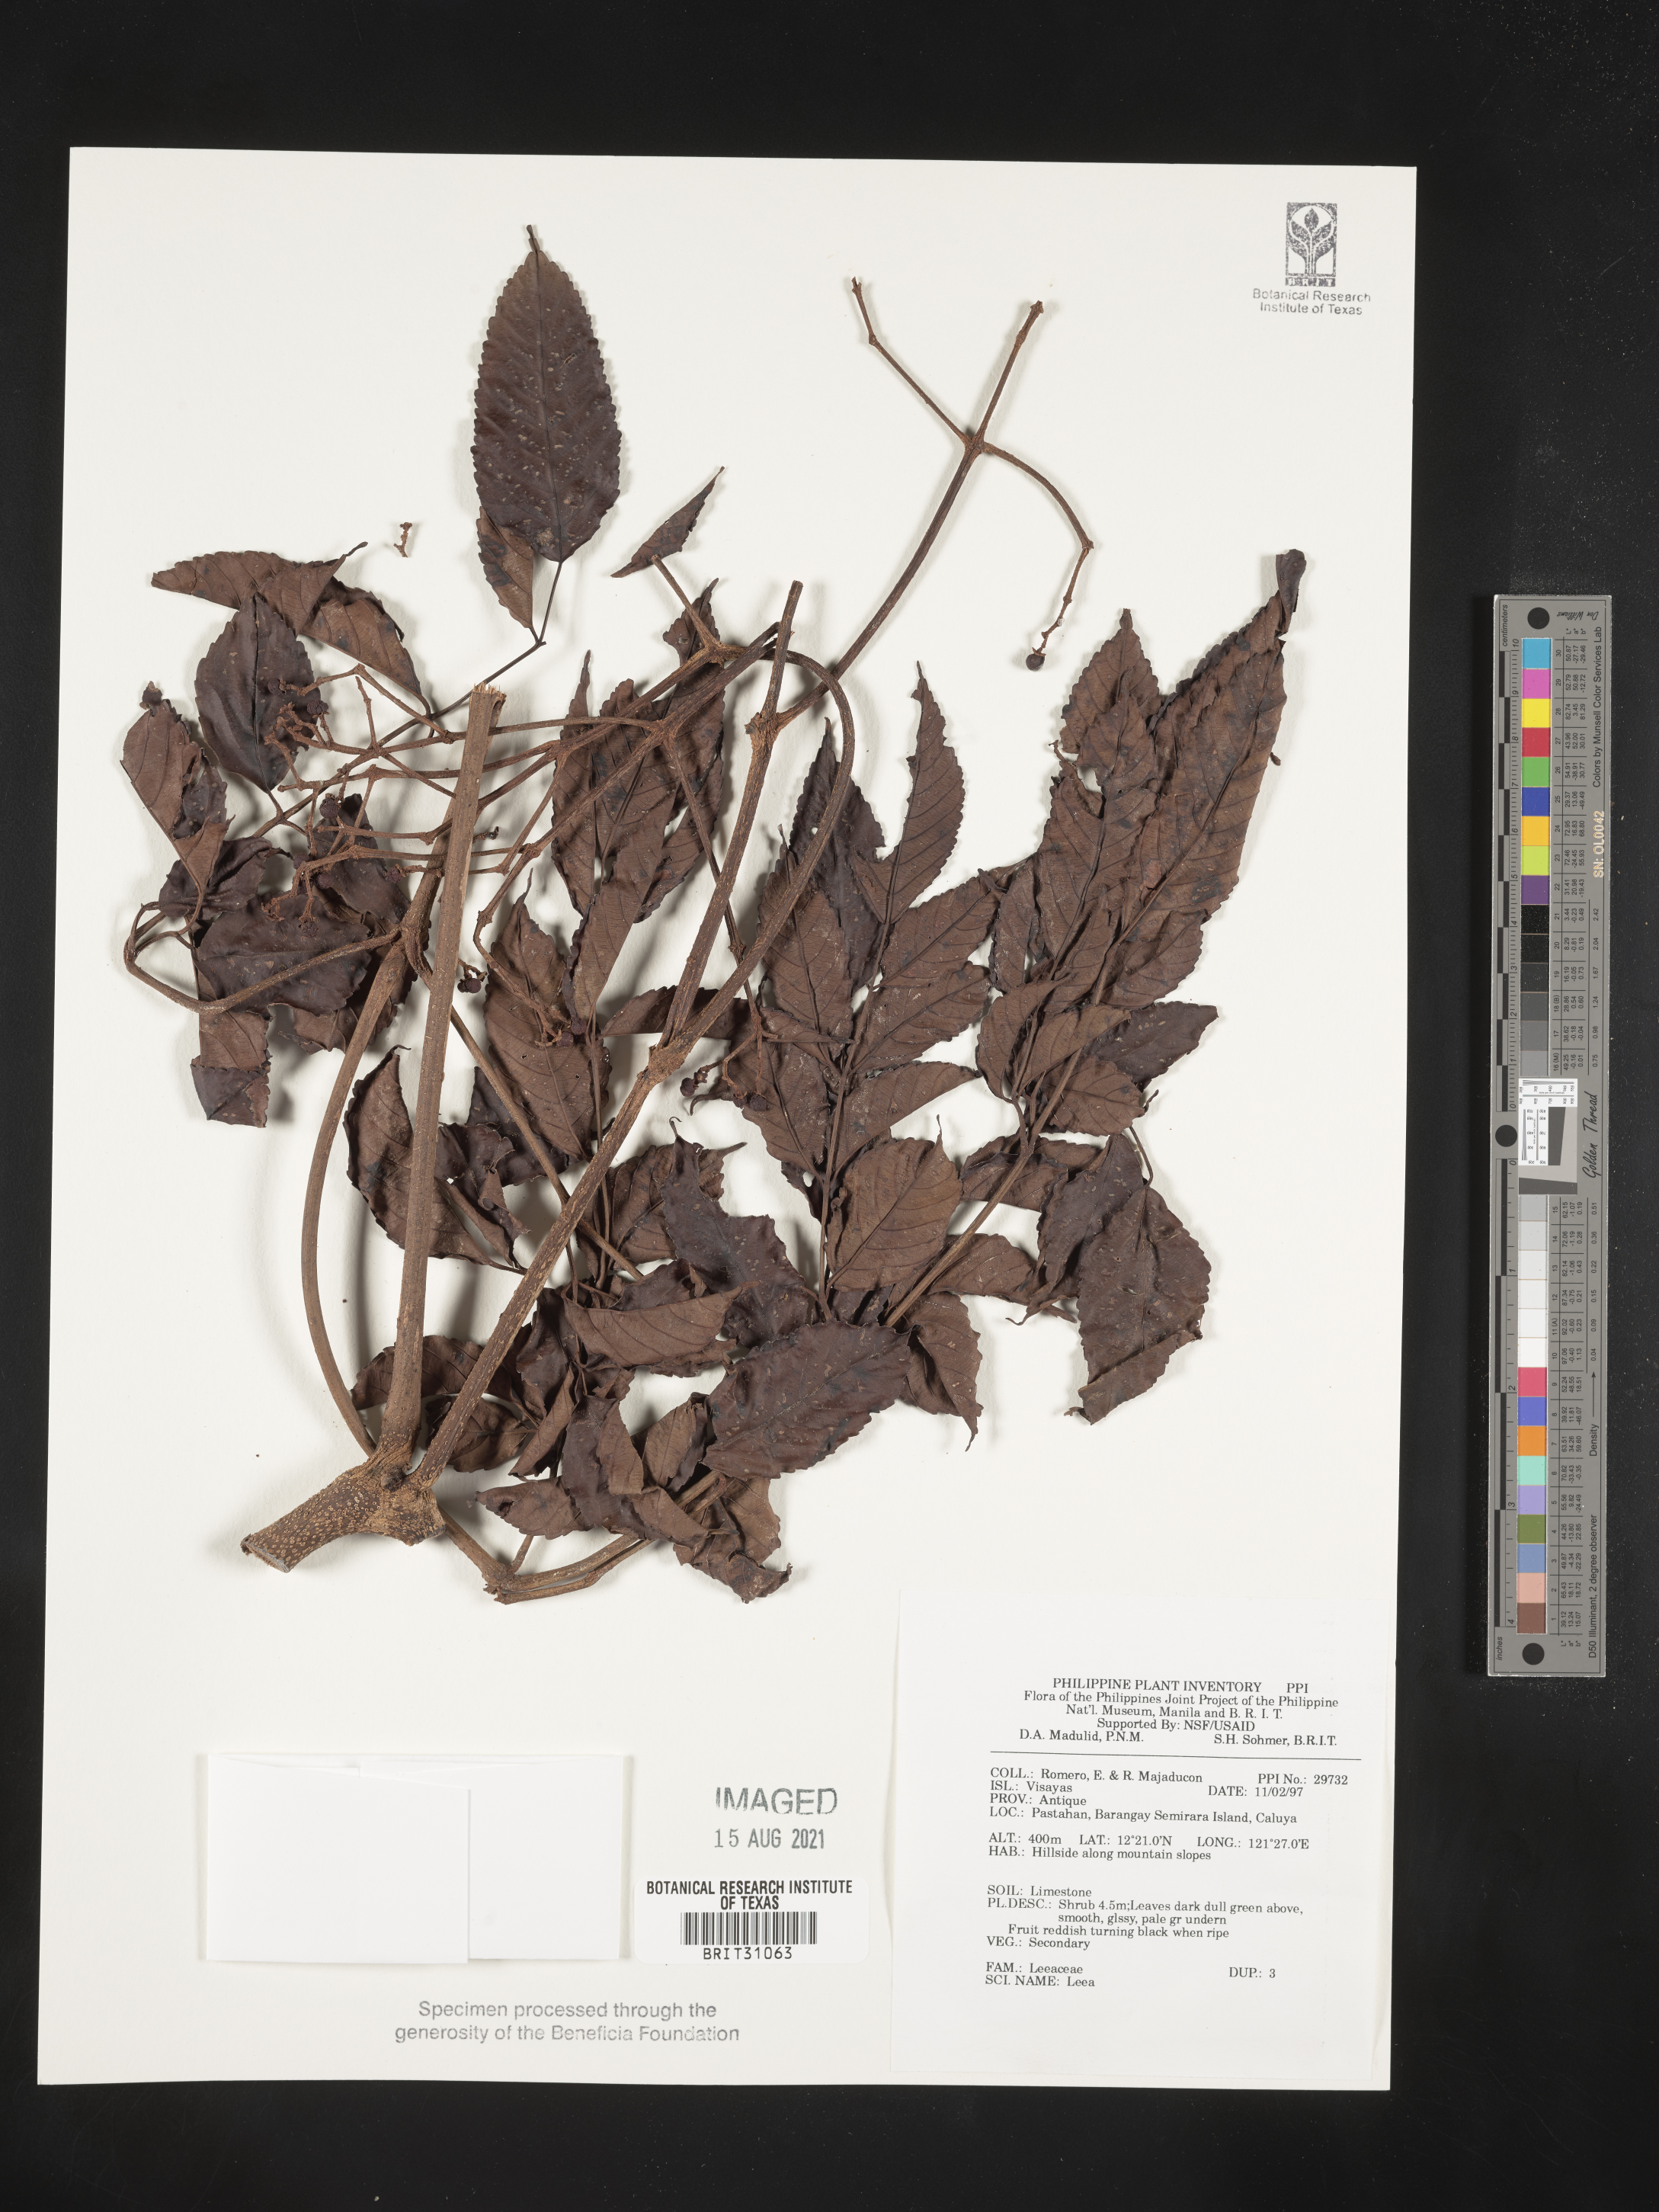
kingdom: Plantae
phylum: Tracheophyta
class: Magnoliopsida
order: Vitales
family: Vitaceae
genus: Leea
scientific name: Leea
